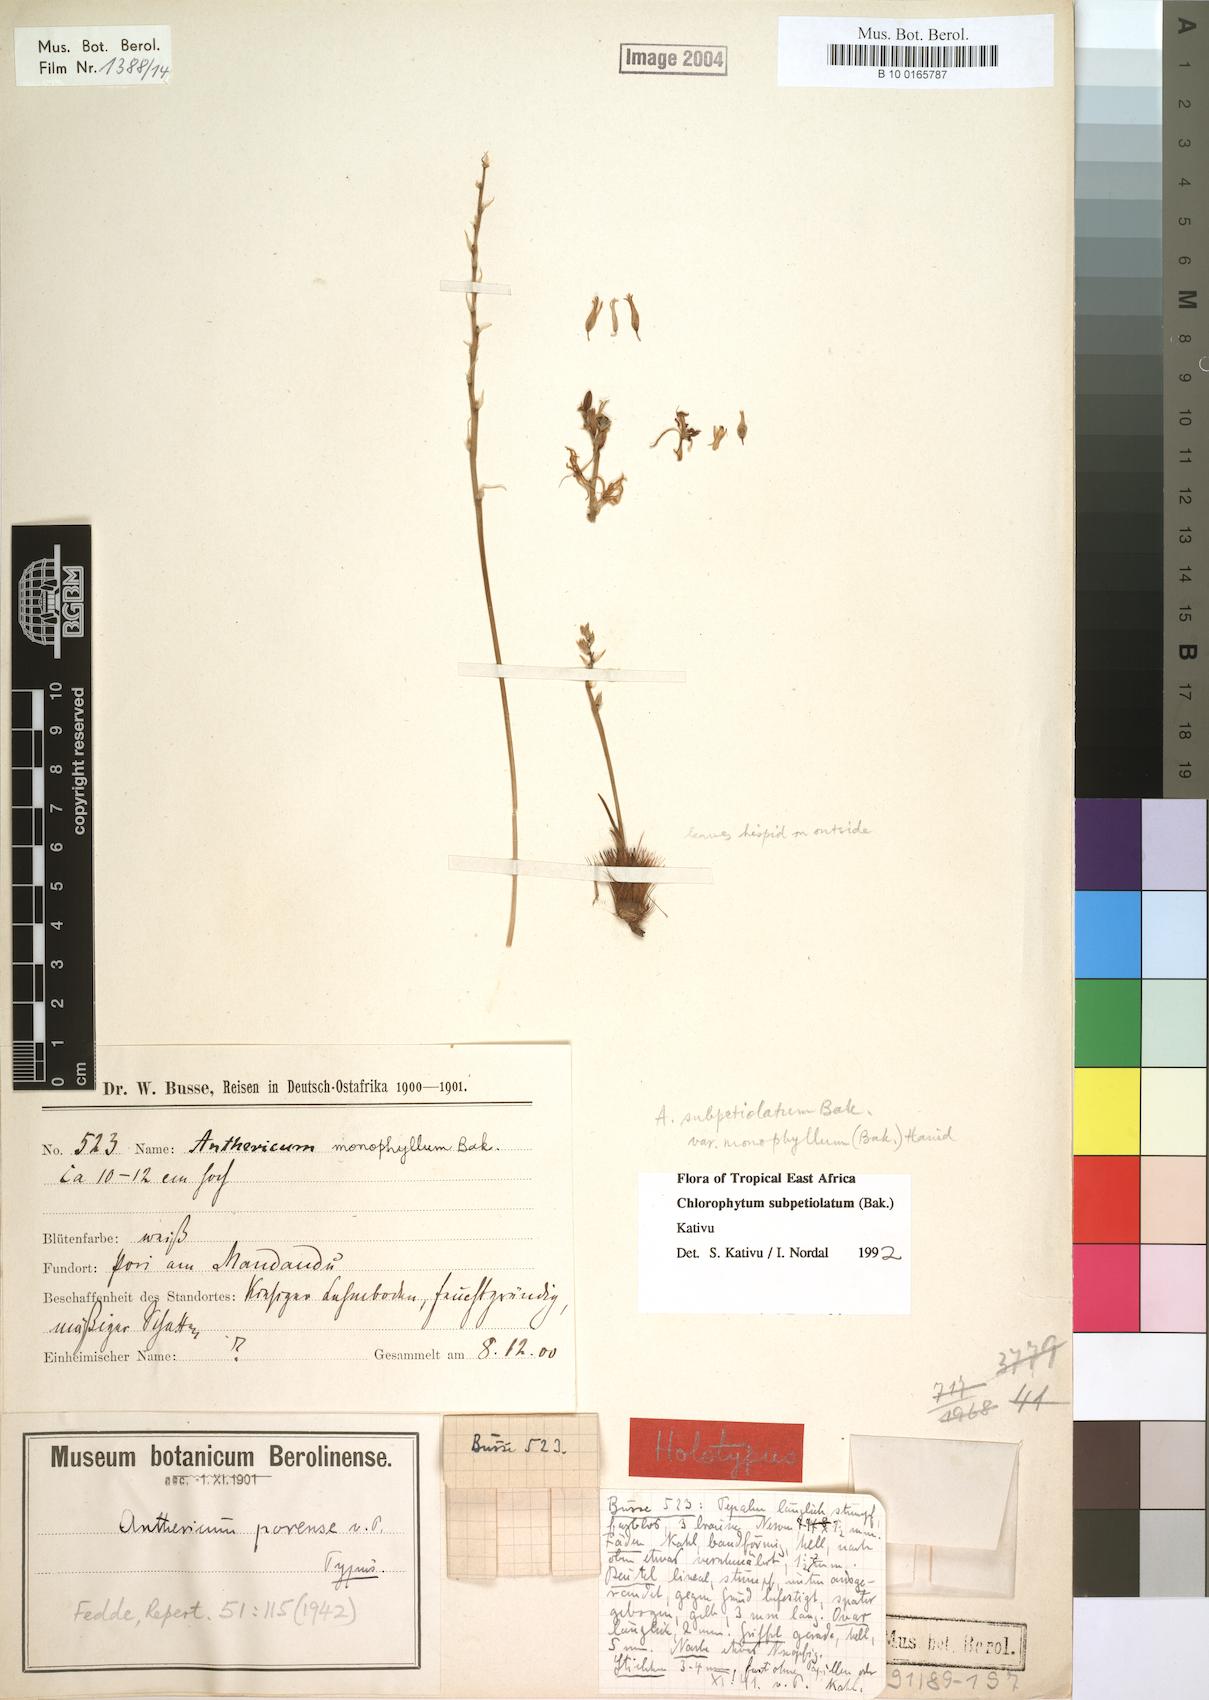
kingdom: Plantae
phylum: Tracheophyta
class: Liliopsida
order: Asparagales
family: Asparagaceae
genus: Chlorophytum
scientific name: Chlorophytum subpetiolatum
